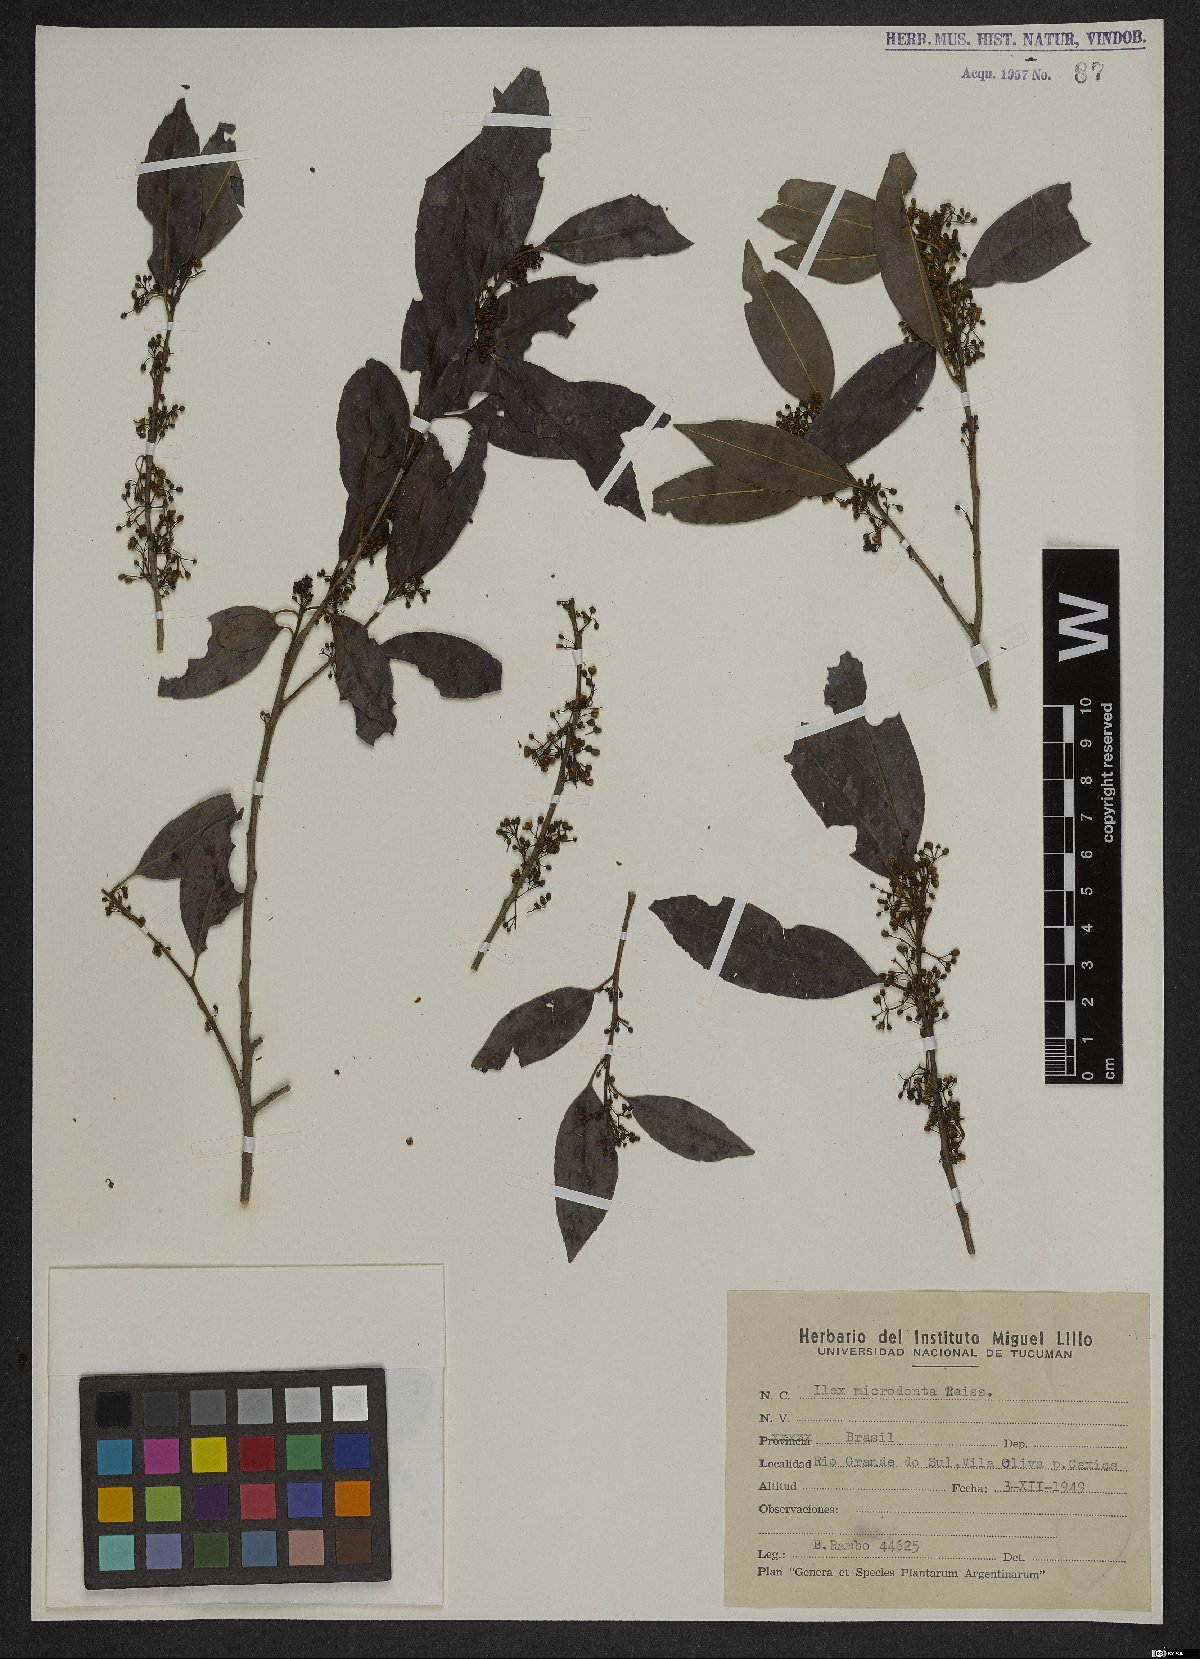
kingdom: Plantae
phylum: Tracheophyta
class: Magnoliopsida
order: Aquifoliales
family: Aquifoliaceae
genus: Ilex
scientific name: Ilex microdonta
